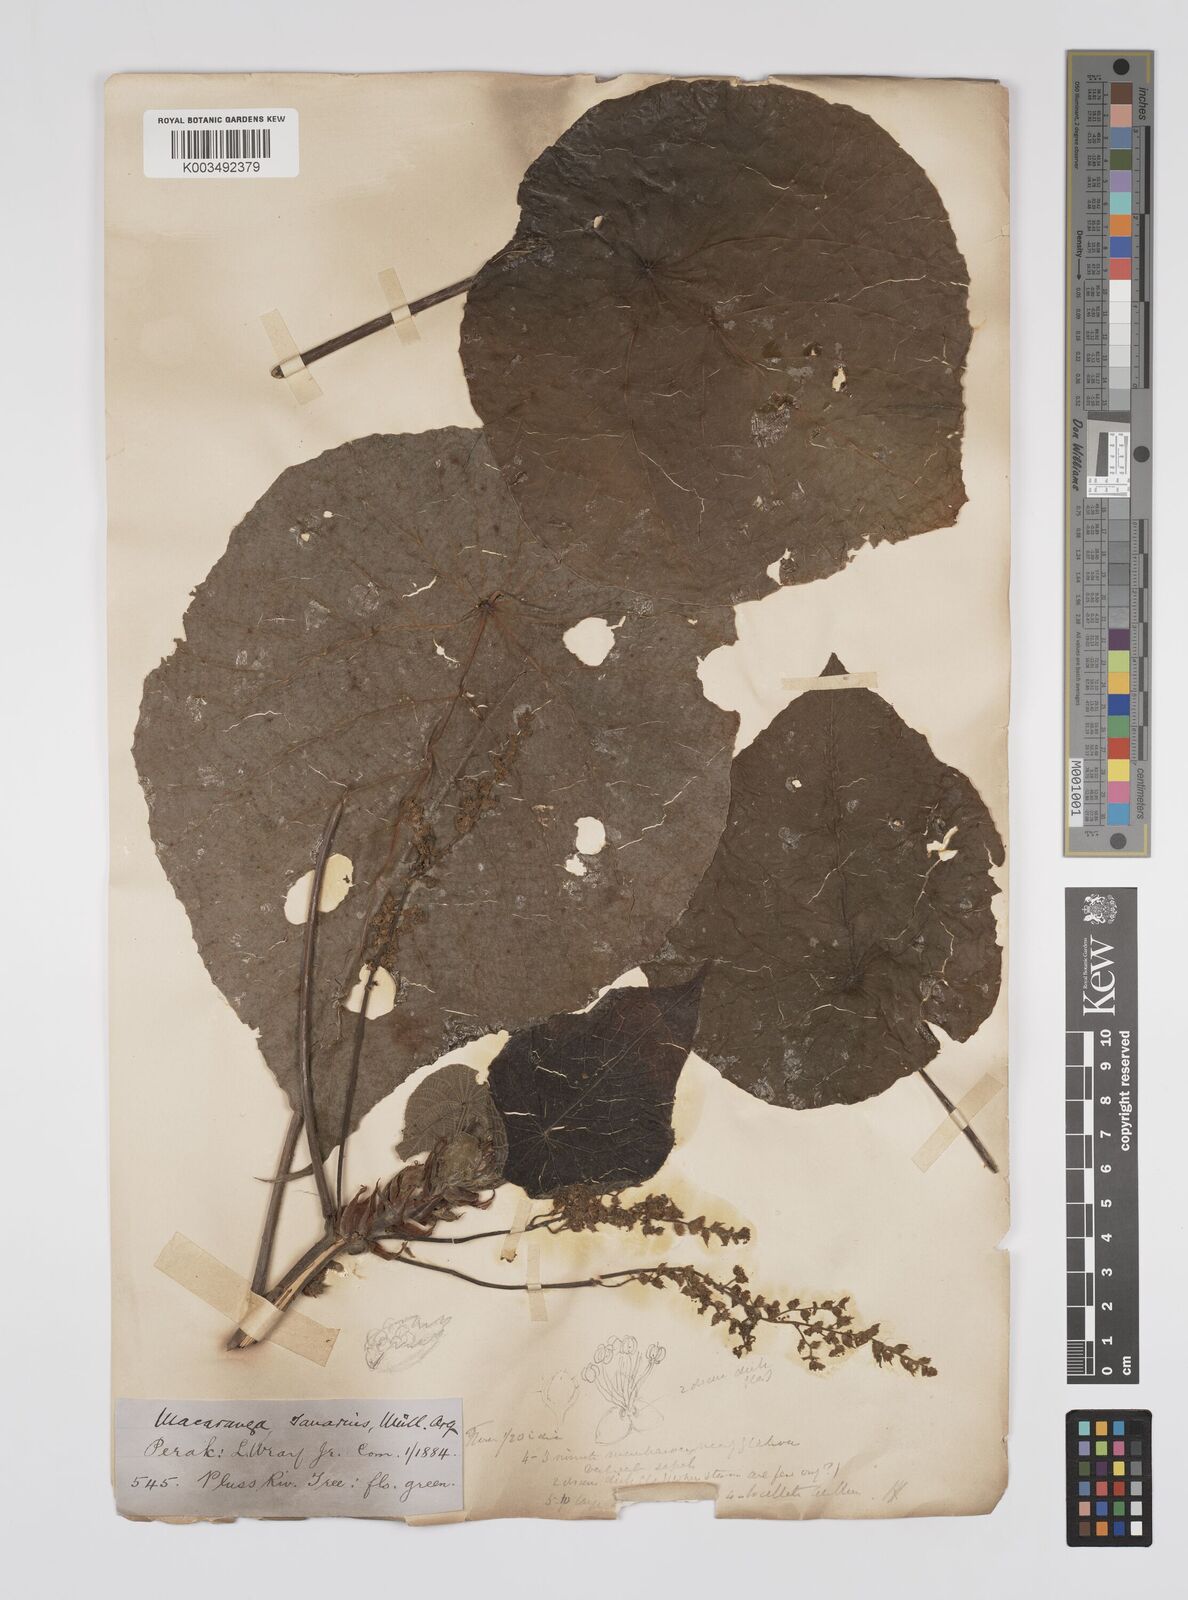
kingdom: Plantae
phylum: Tracheophyta
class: Magnoliopsida
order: Malpighiales
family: Euphorbiaceae
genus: Macaranga
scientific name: Macaranga tanarius
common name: Parasol leaf tree
